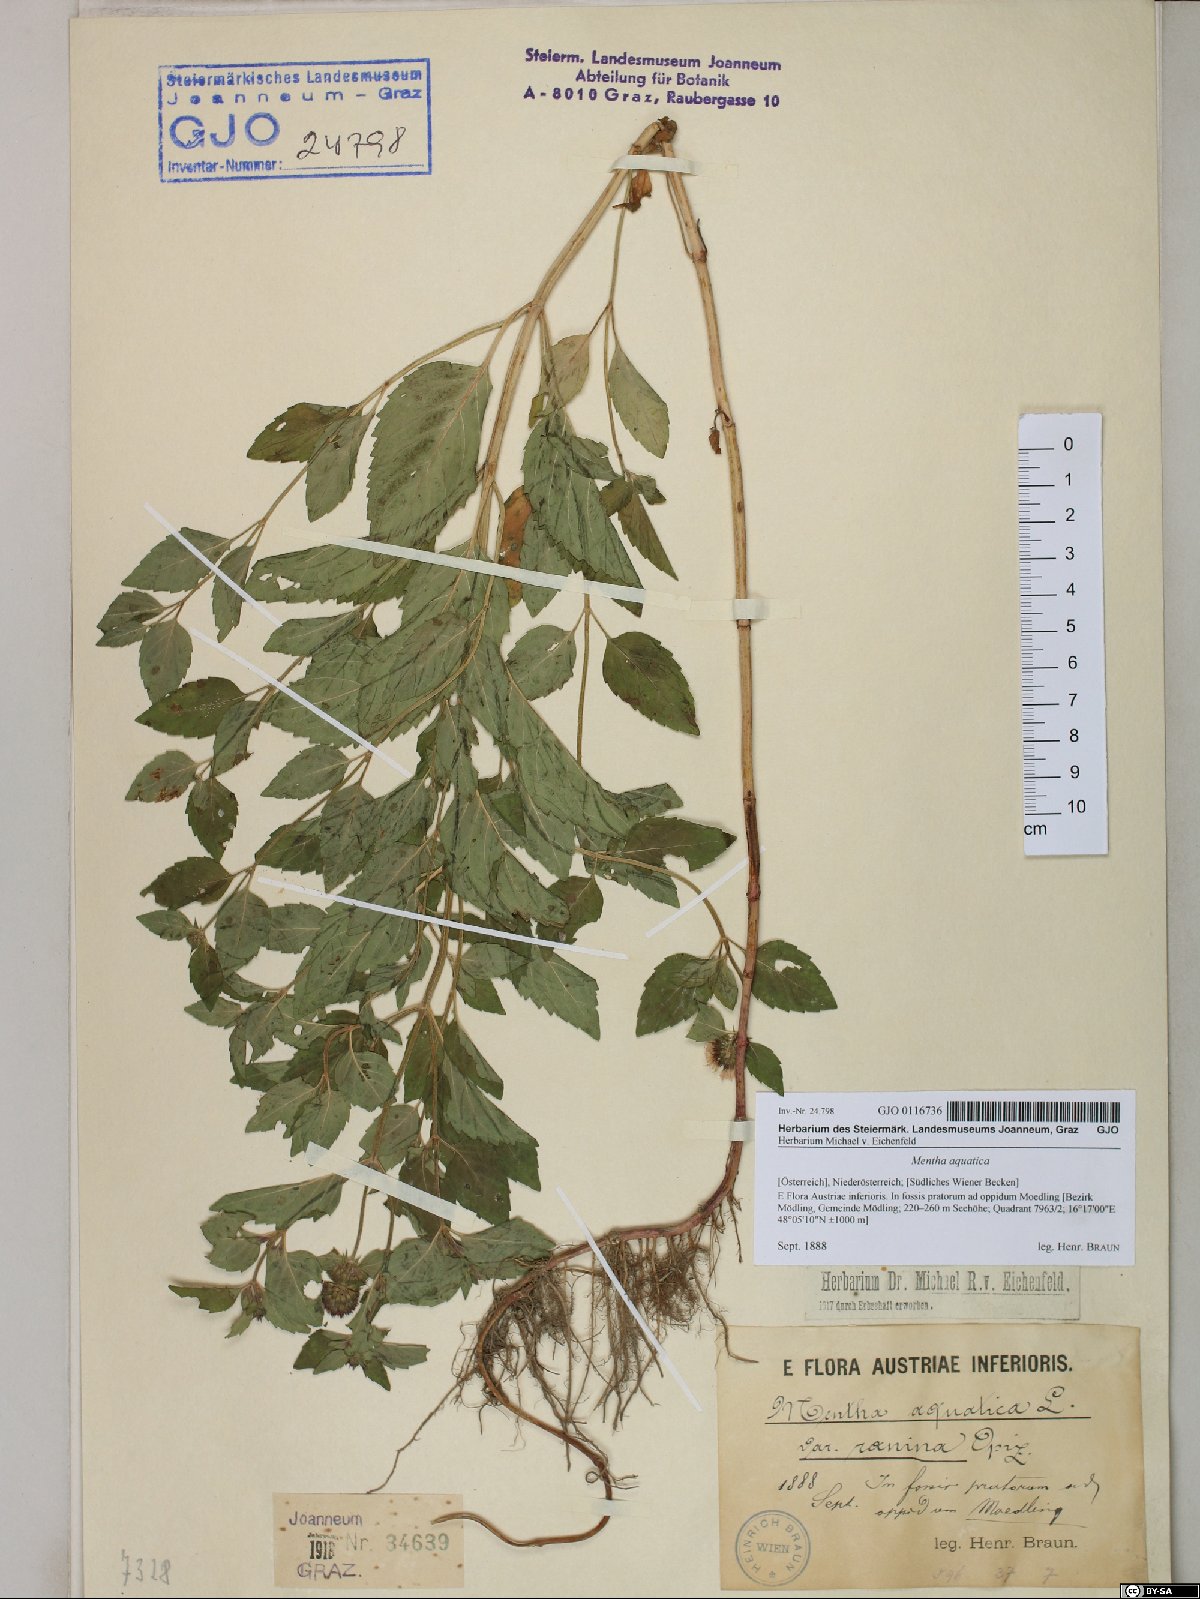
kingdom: Plantae
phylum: Tracheophyta
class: Magnoliopsida
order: Lamiales
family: Lamiaceae
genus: Mentha
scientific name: Mentha aquatica
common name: Water mint
